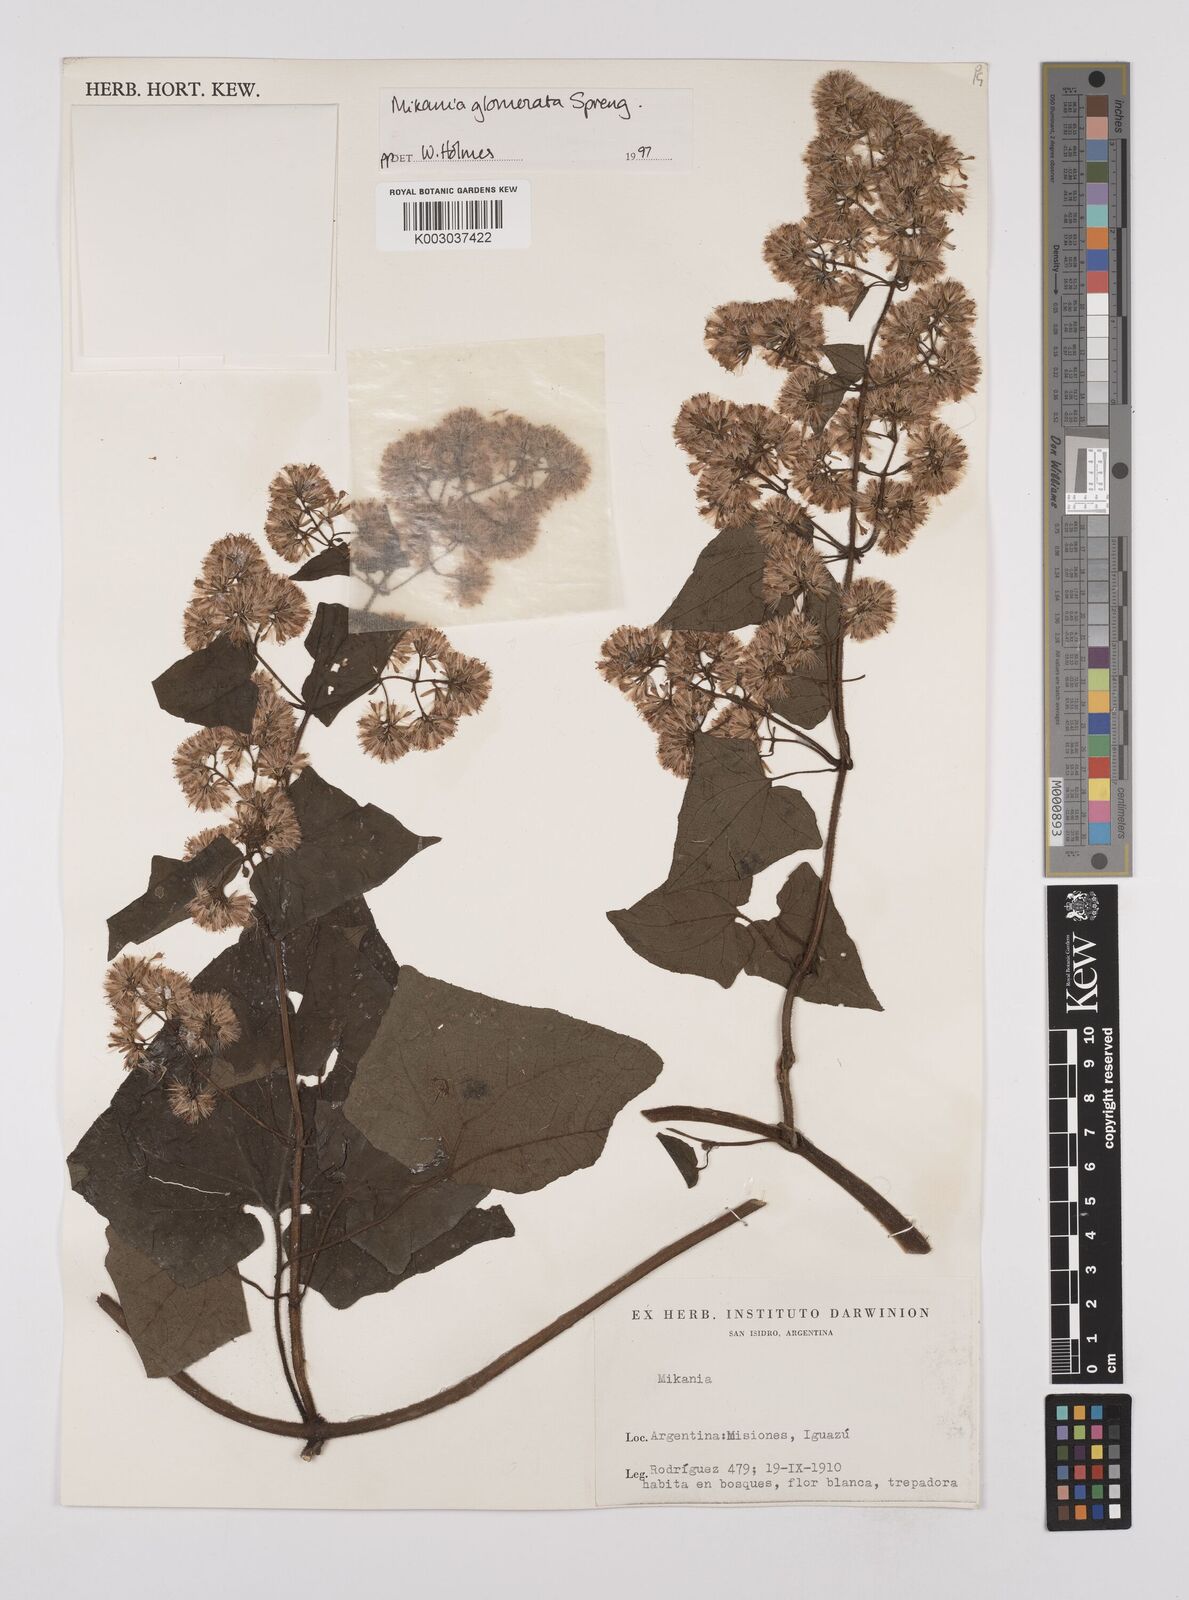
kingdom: Plantae
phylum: Tracheophyta
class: Magnoliopsida
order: Asterales
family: Asteraceae
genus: Mikania
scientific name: Mikania glomerata
